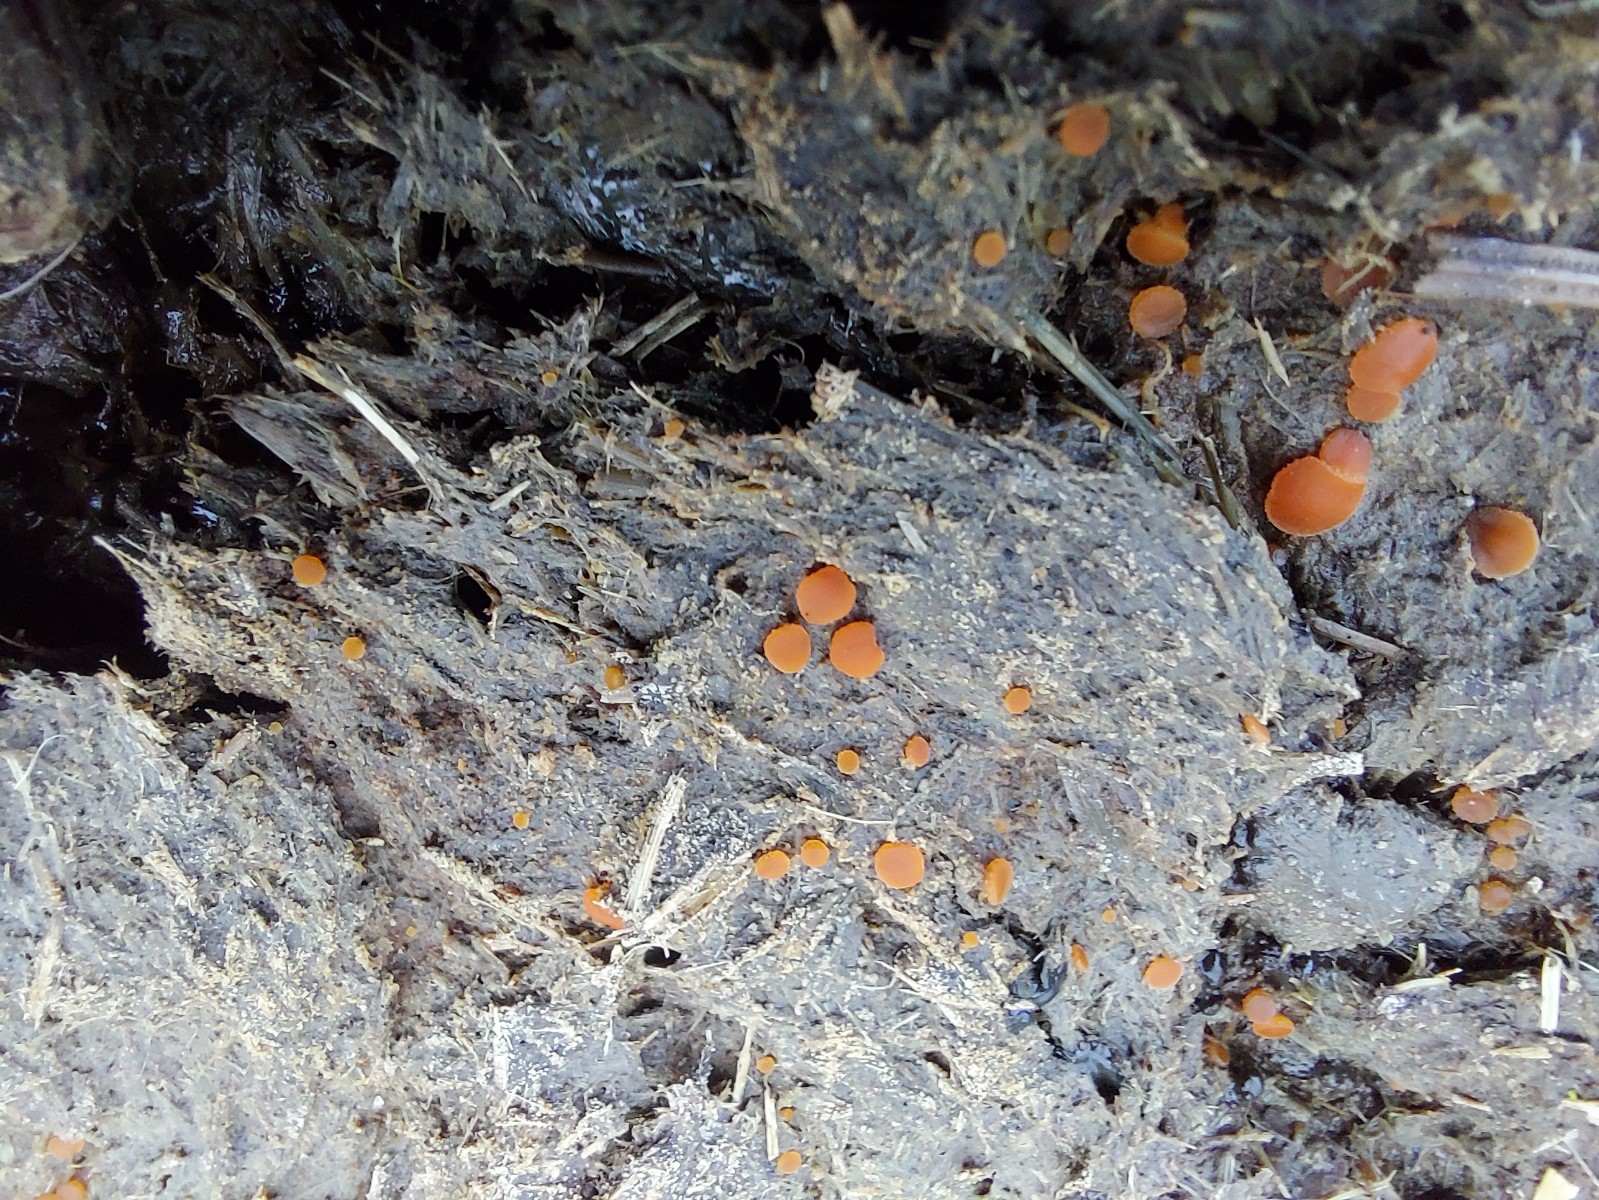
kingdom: Fungi
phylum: Ascomycota
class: Pezizomycetes
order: Pezizales
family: Pyronemataceae
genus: Cheilymenia
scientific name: Cheilymenia granulata
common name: møgbæger
